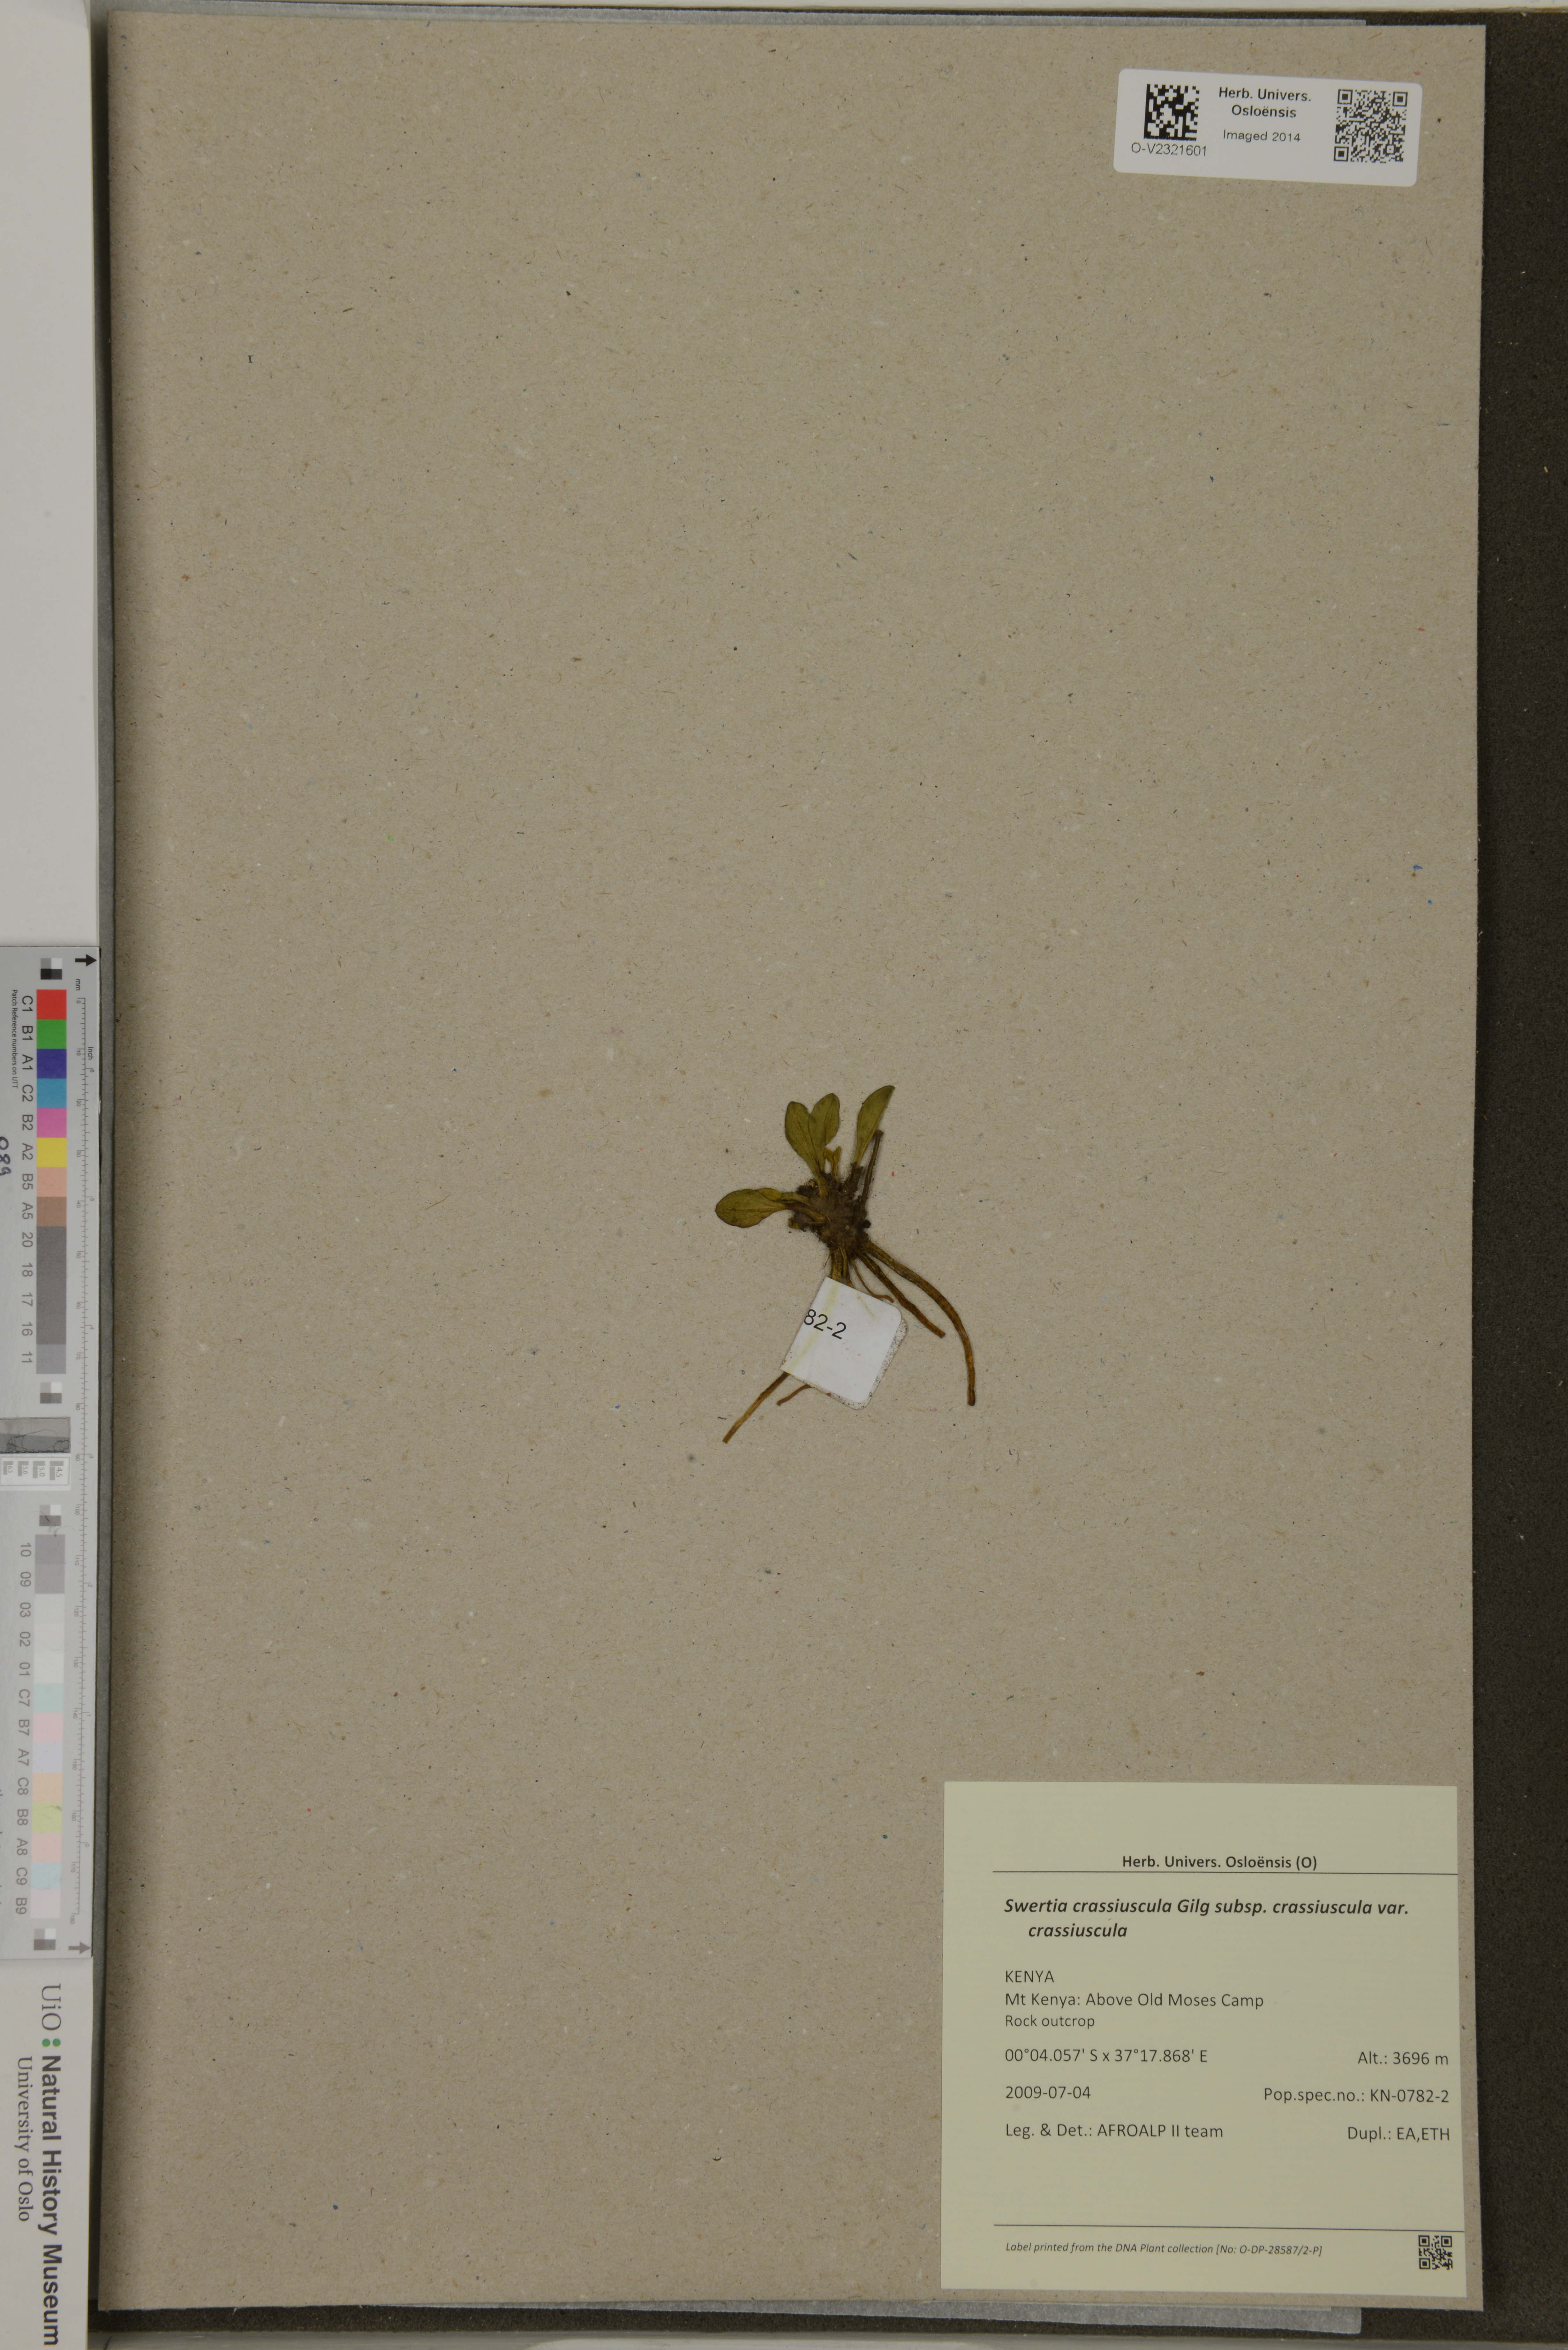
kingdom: Plantae
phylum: Tracheophyta
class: Magnoliopsida
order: Gentianales
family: Gentianaceae
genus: Swertia
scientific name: Swertia crassiuscula
